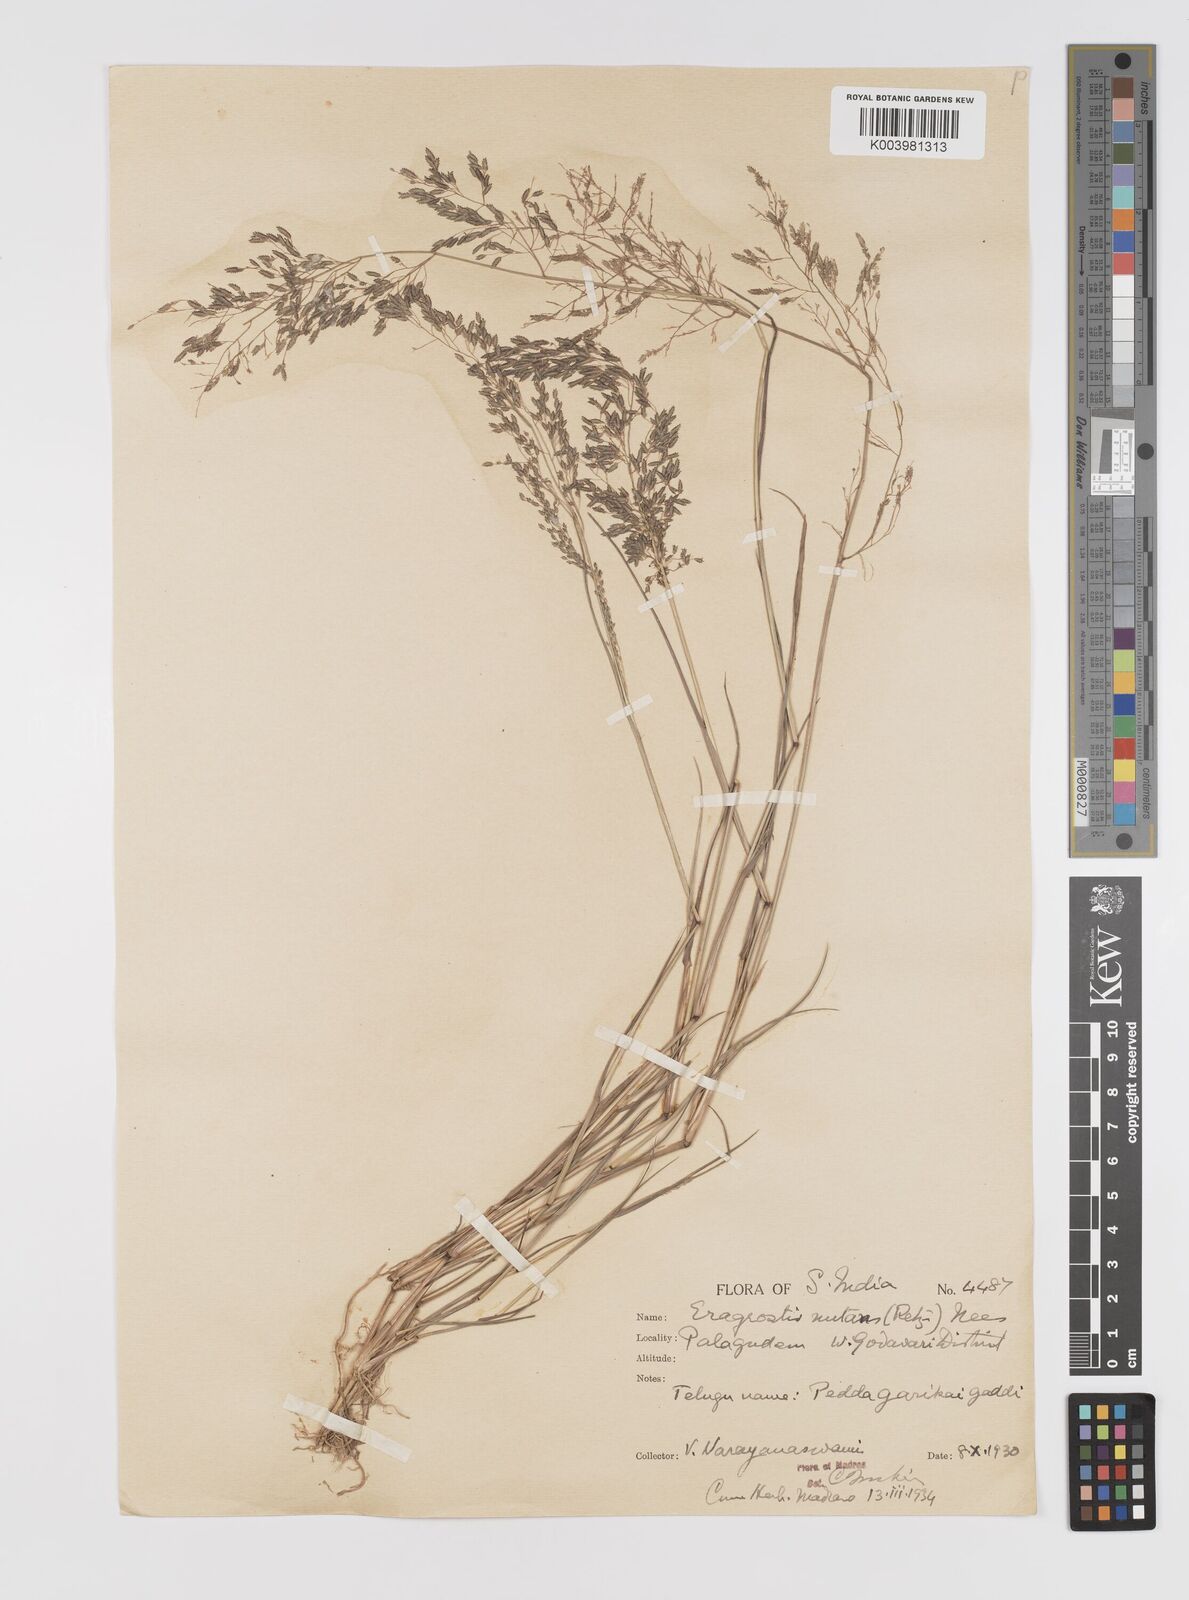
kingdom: Plantae
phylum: Tracheophyta
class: Liliopsida
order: Poales
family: Poaceae
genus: Eragrostis
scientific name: Eragrostis gangetica
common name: Slimflower lovegrass
